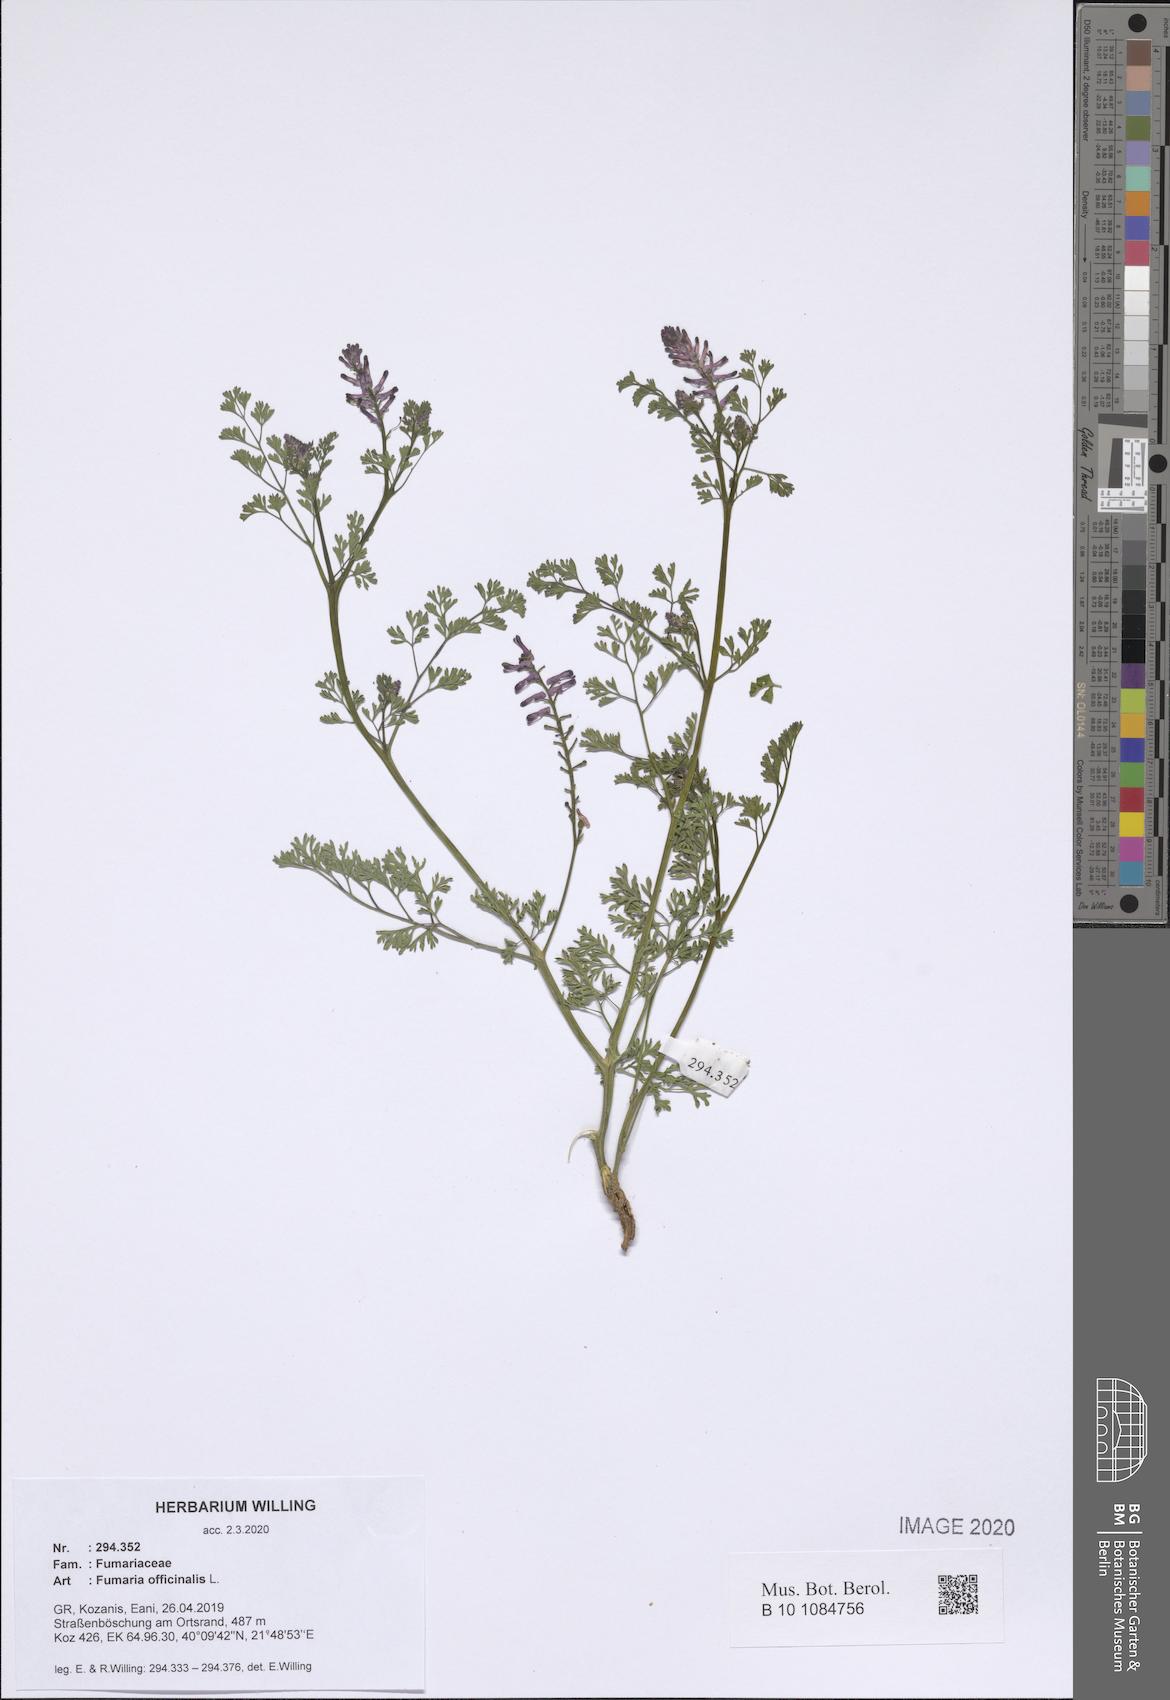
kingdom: Plantae
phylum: Tracheophyta
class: Magnoliopsida
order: Ranunculales
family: Papaveraceae
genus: Fumaria
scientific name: Fumaria officinalis
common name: Common fumitory
